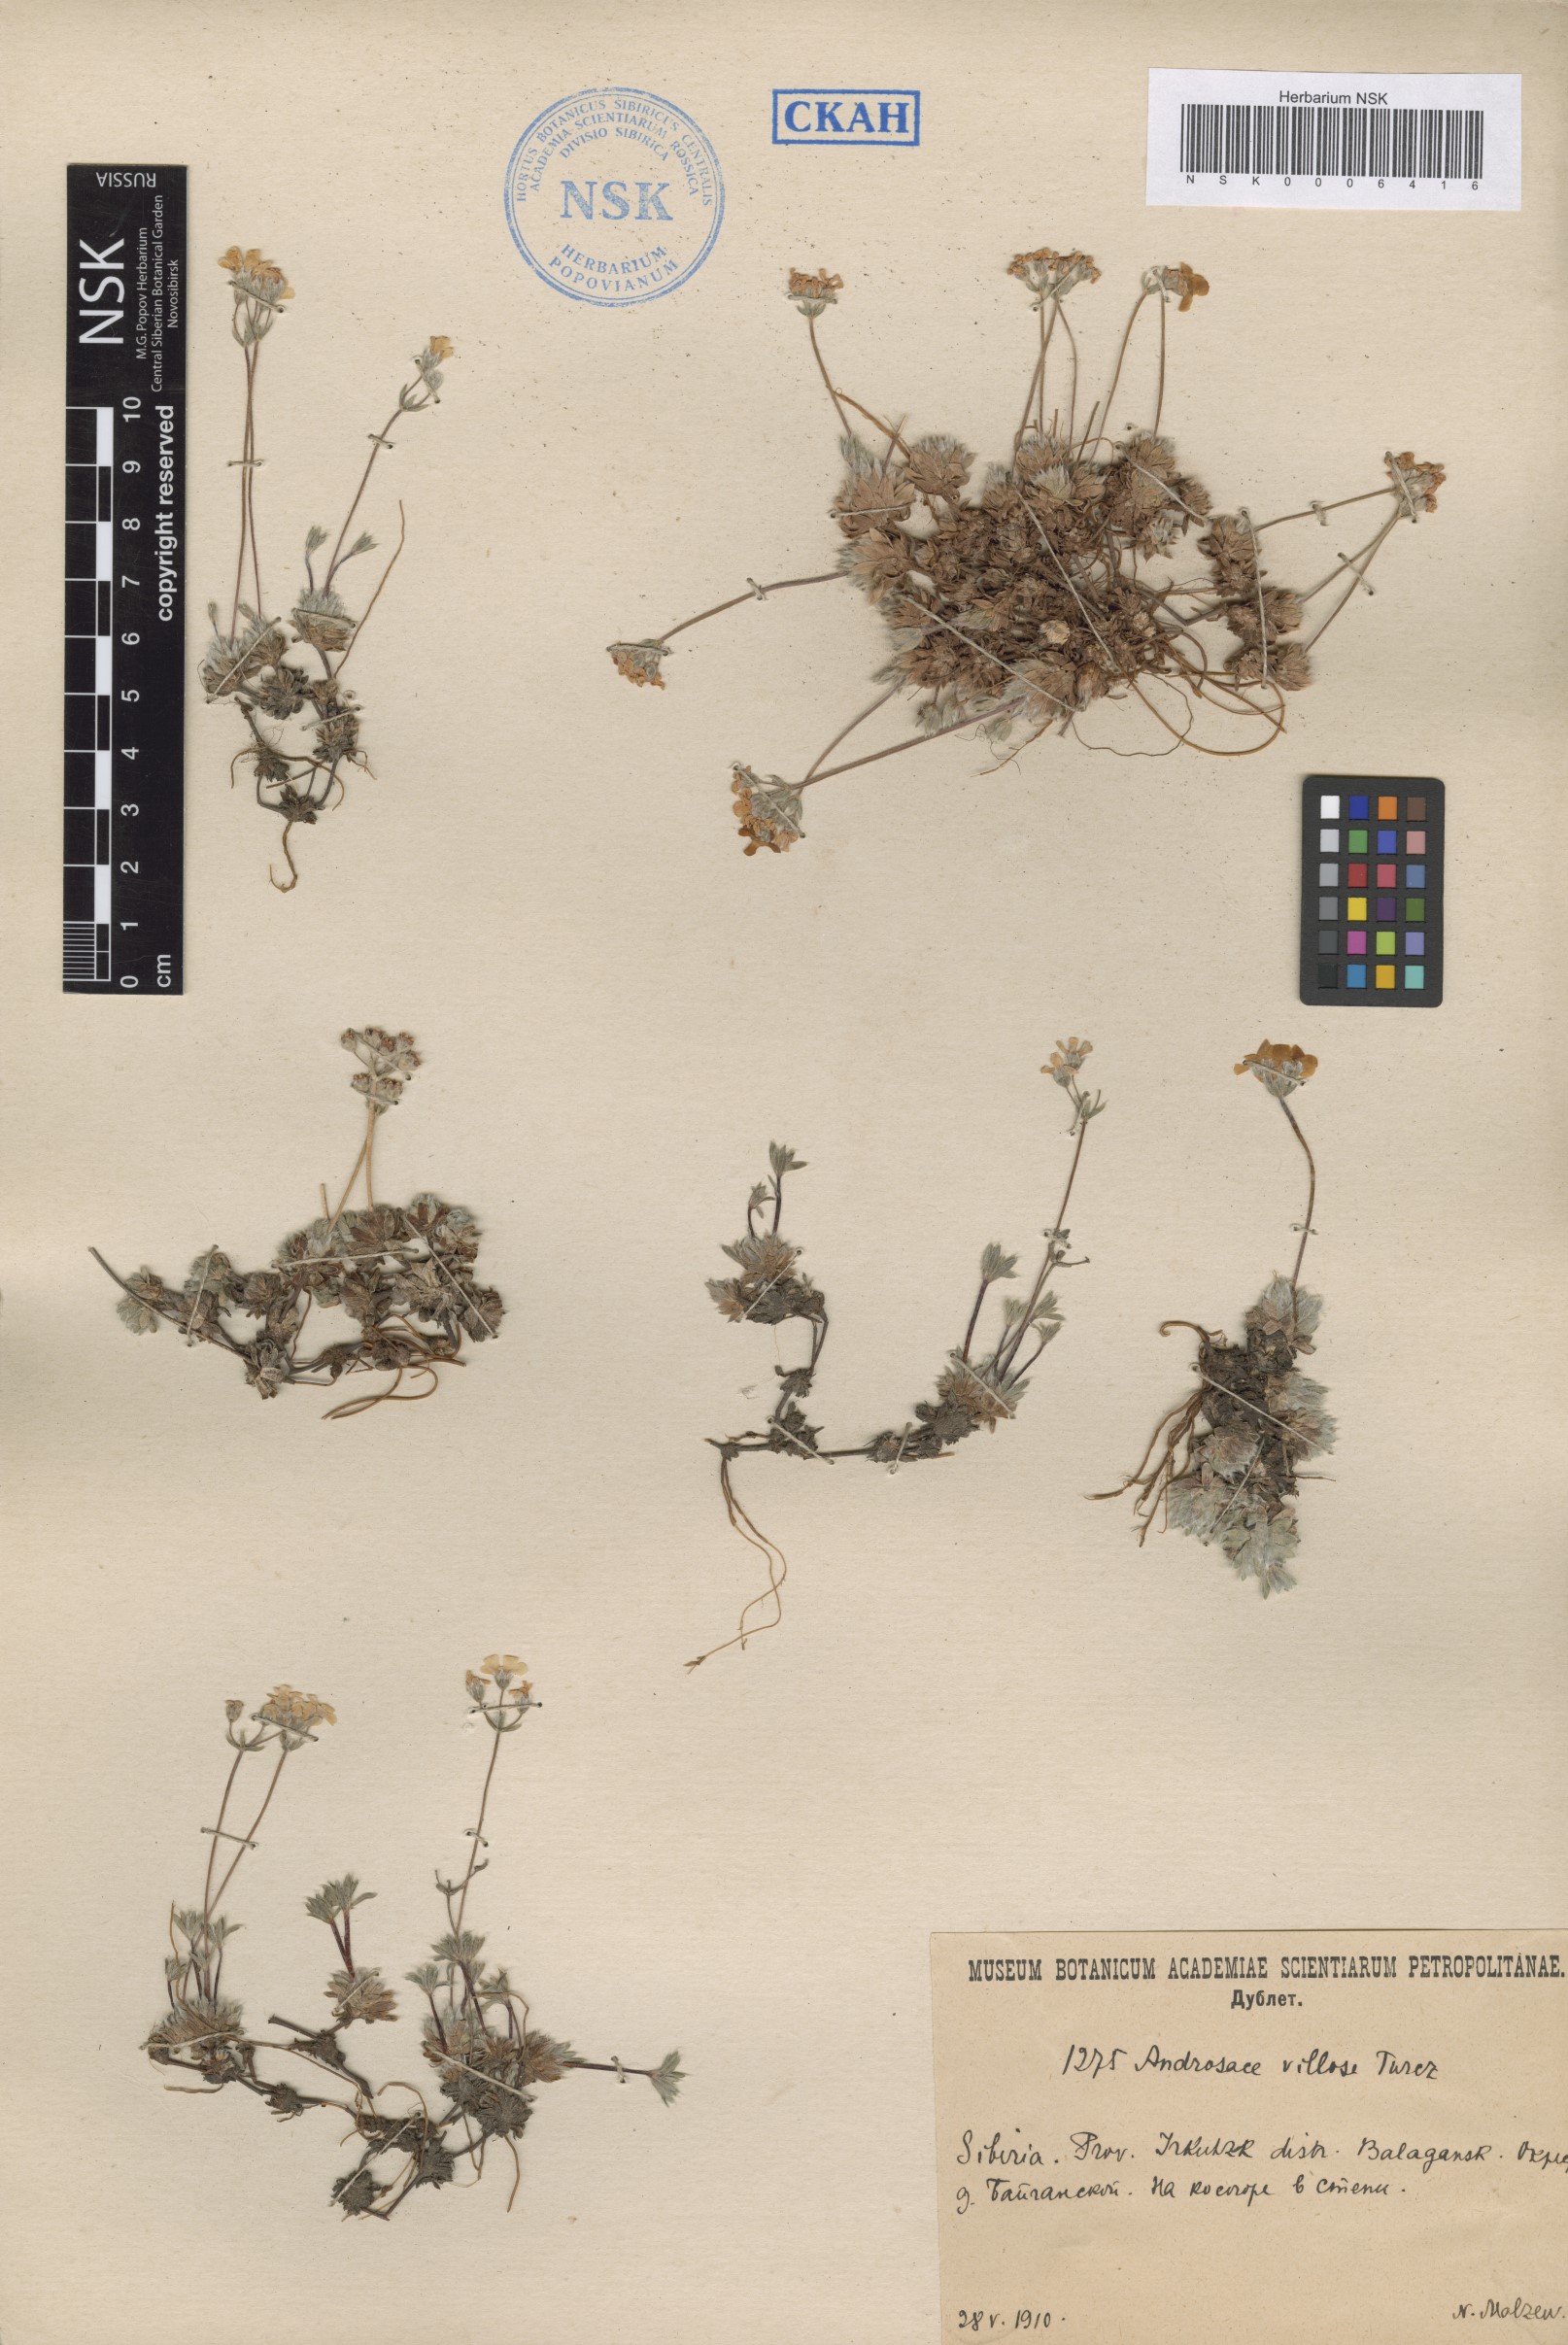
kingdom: Plantae
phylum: Tracheophyta
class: Magnoliopsida
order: Ericales
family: Primulaceae
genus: Androsace
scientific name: Androsace incana
